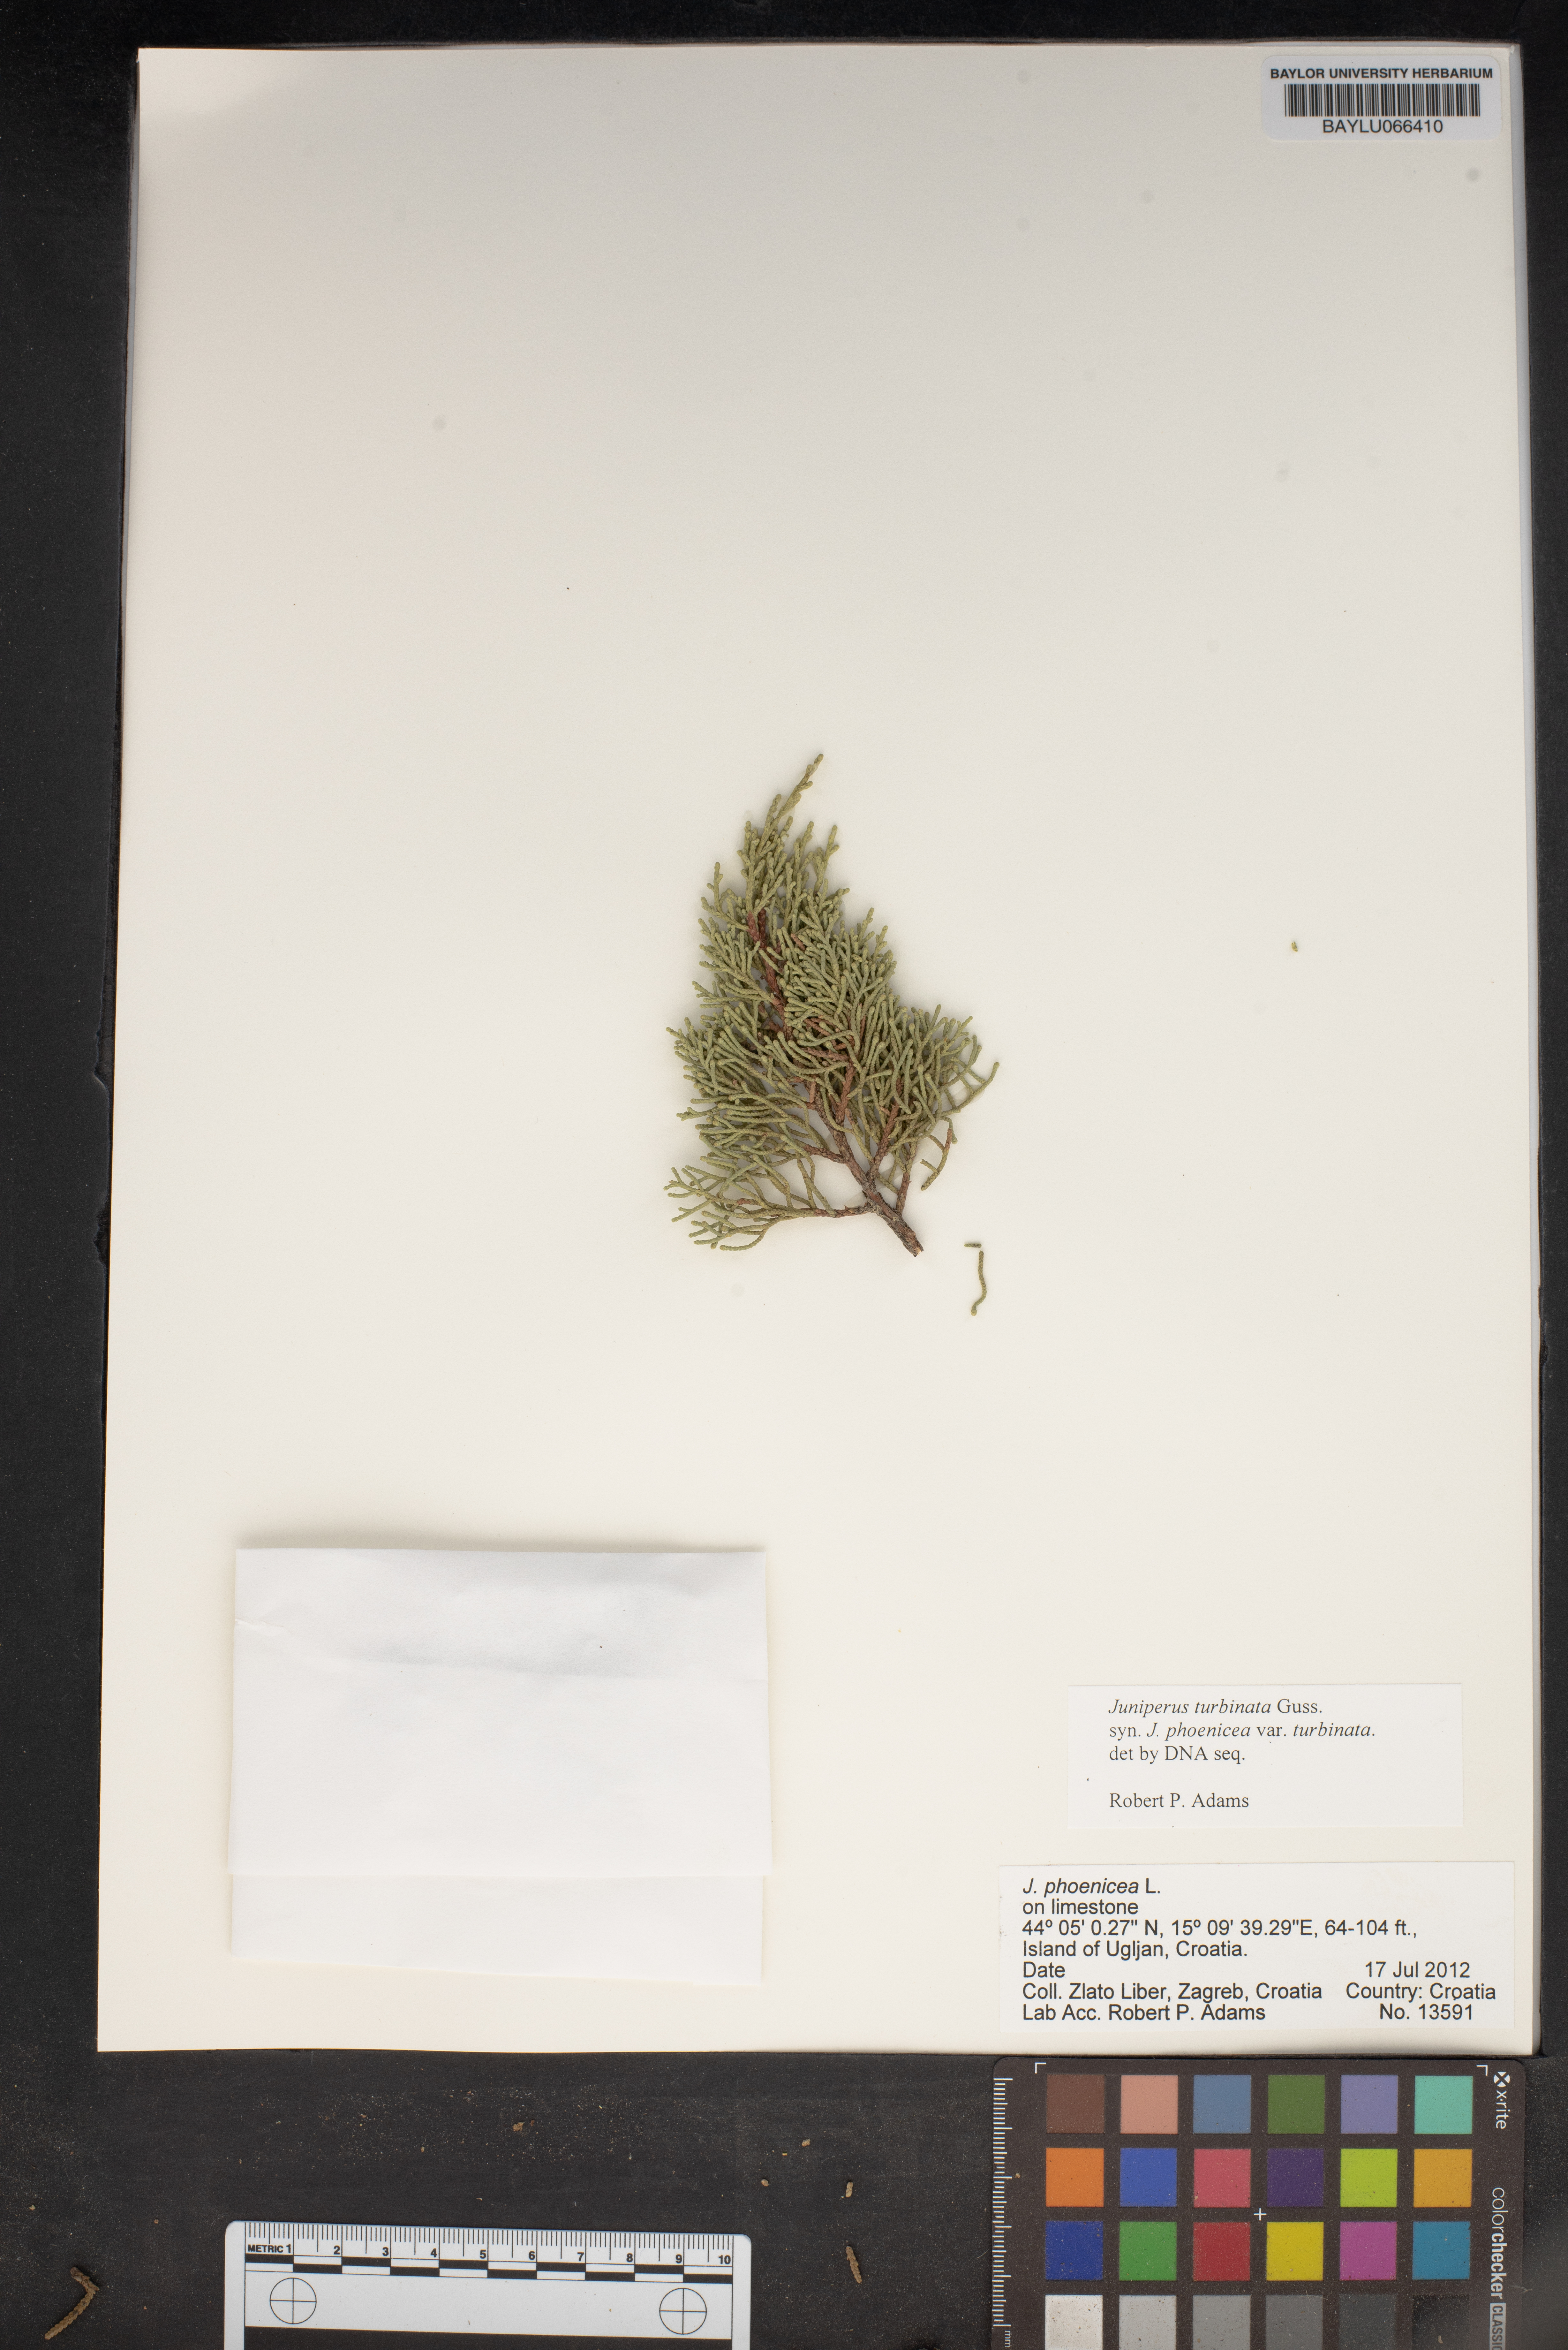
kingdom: Plantae
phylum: Tracheophyta
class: Pinopsida
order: Pinales
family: Cupressaceae
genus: Juniperus
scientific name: Juniperus phoenicea
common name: Phoenician juniper
